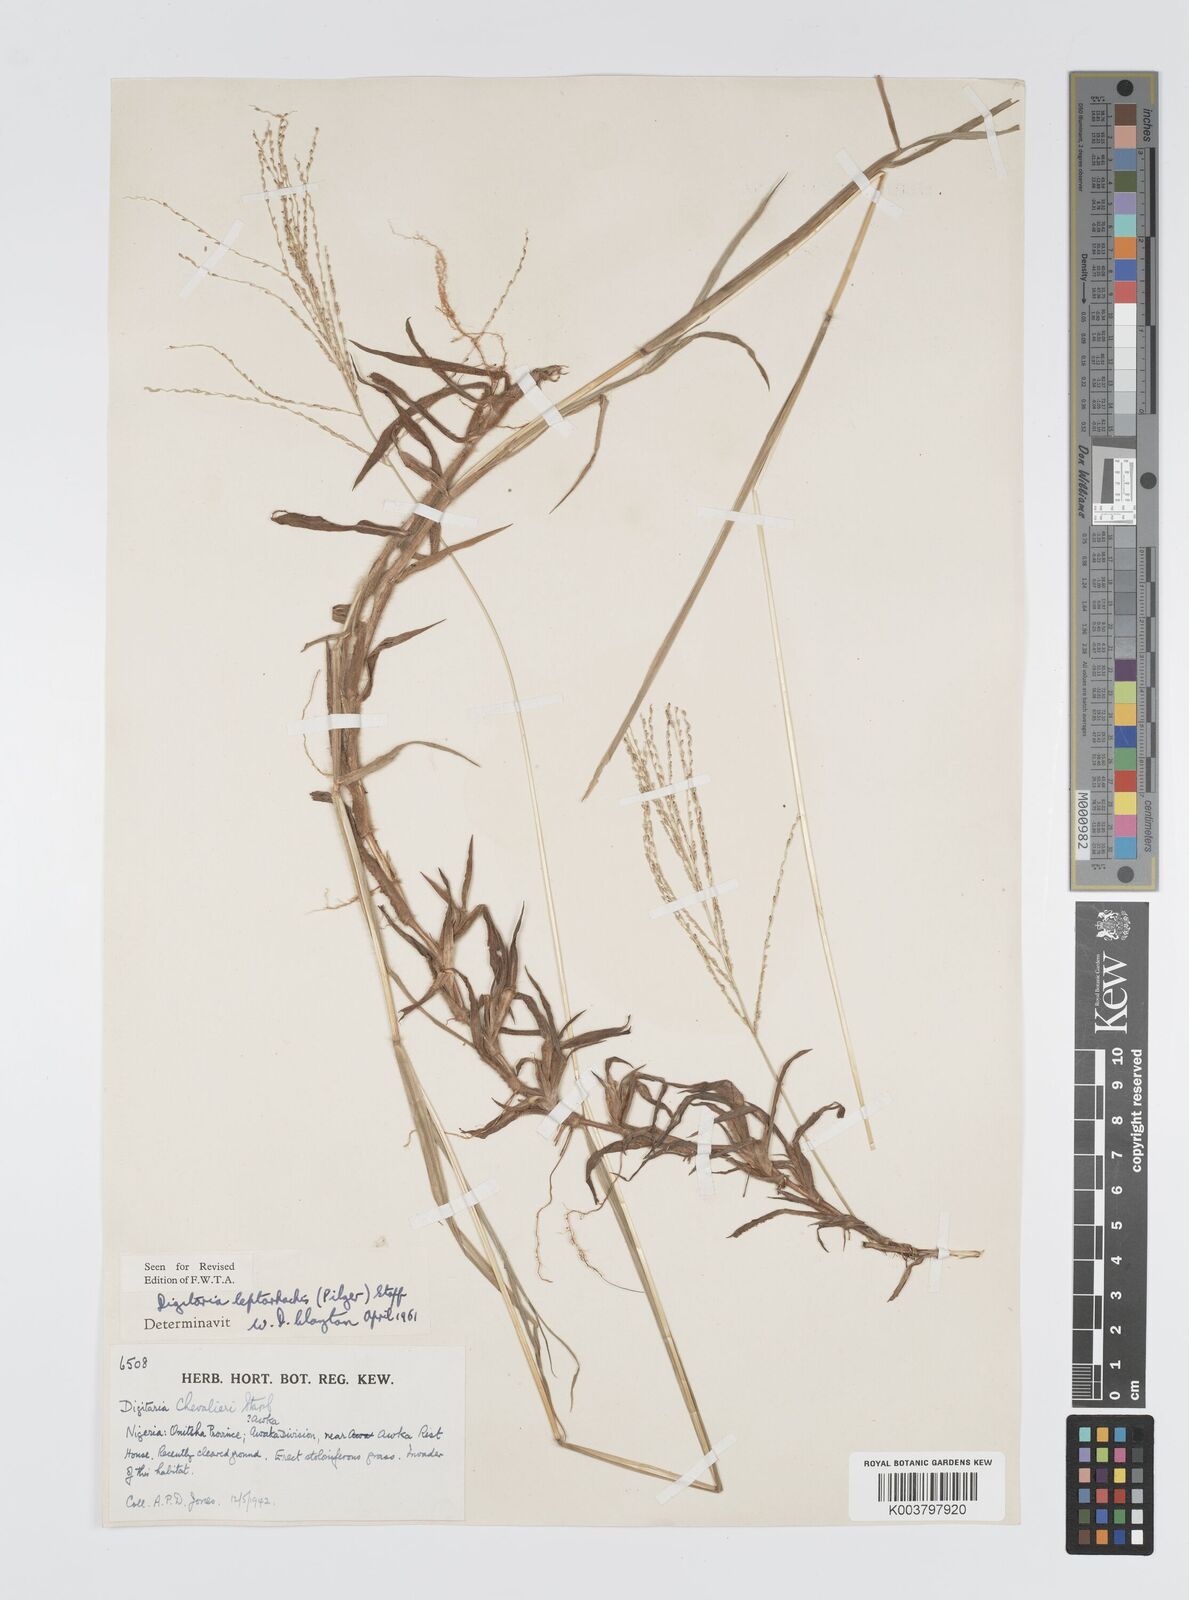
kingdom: Plantae
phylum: Tracheophyta
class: Liliopsida
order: Poales
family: Poaceae
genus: Digitaria
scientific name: Digitaria leptorhachis
